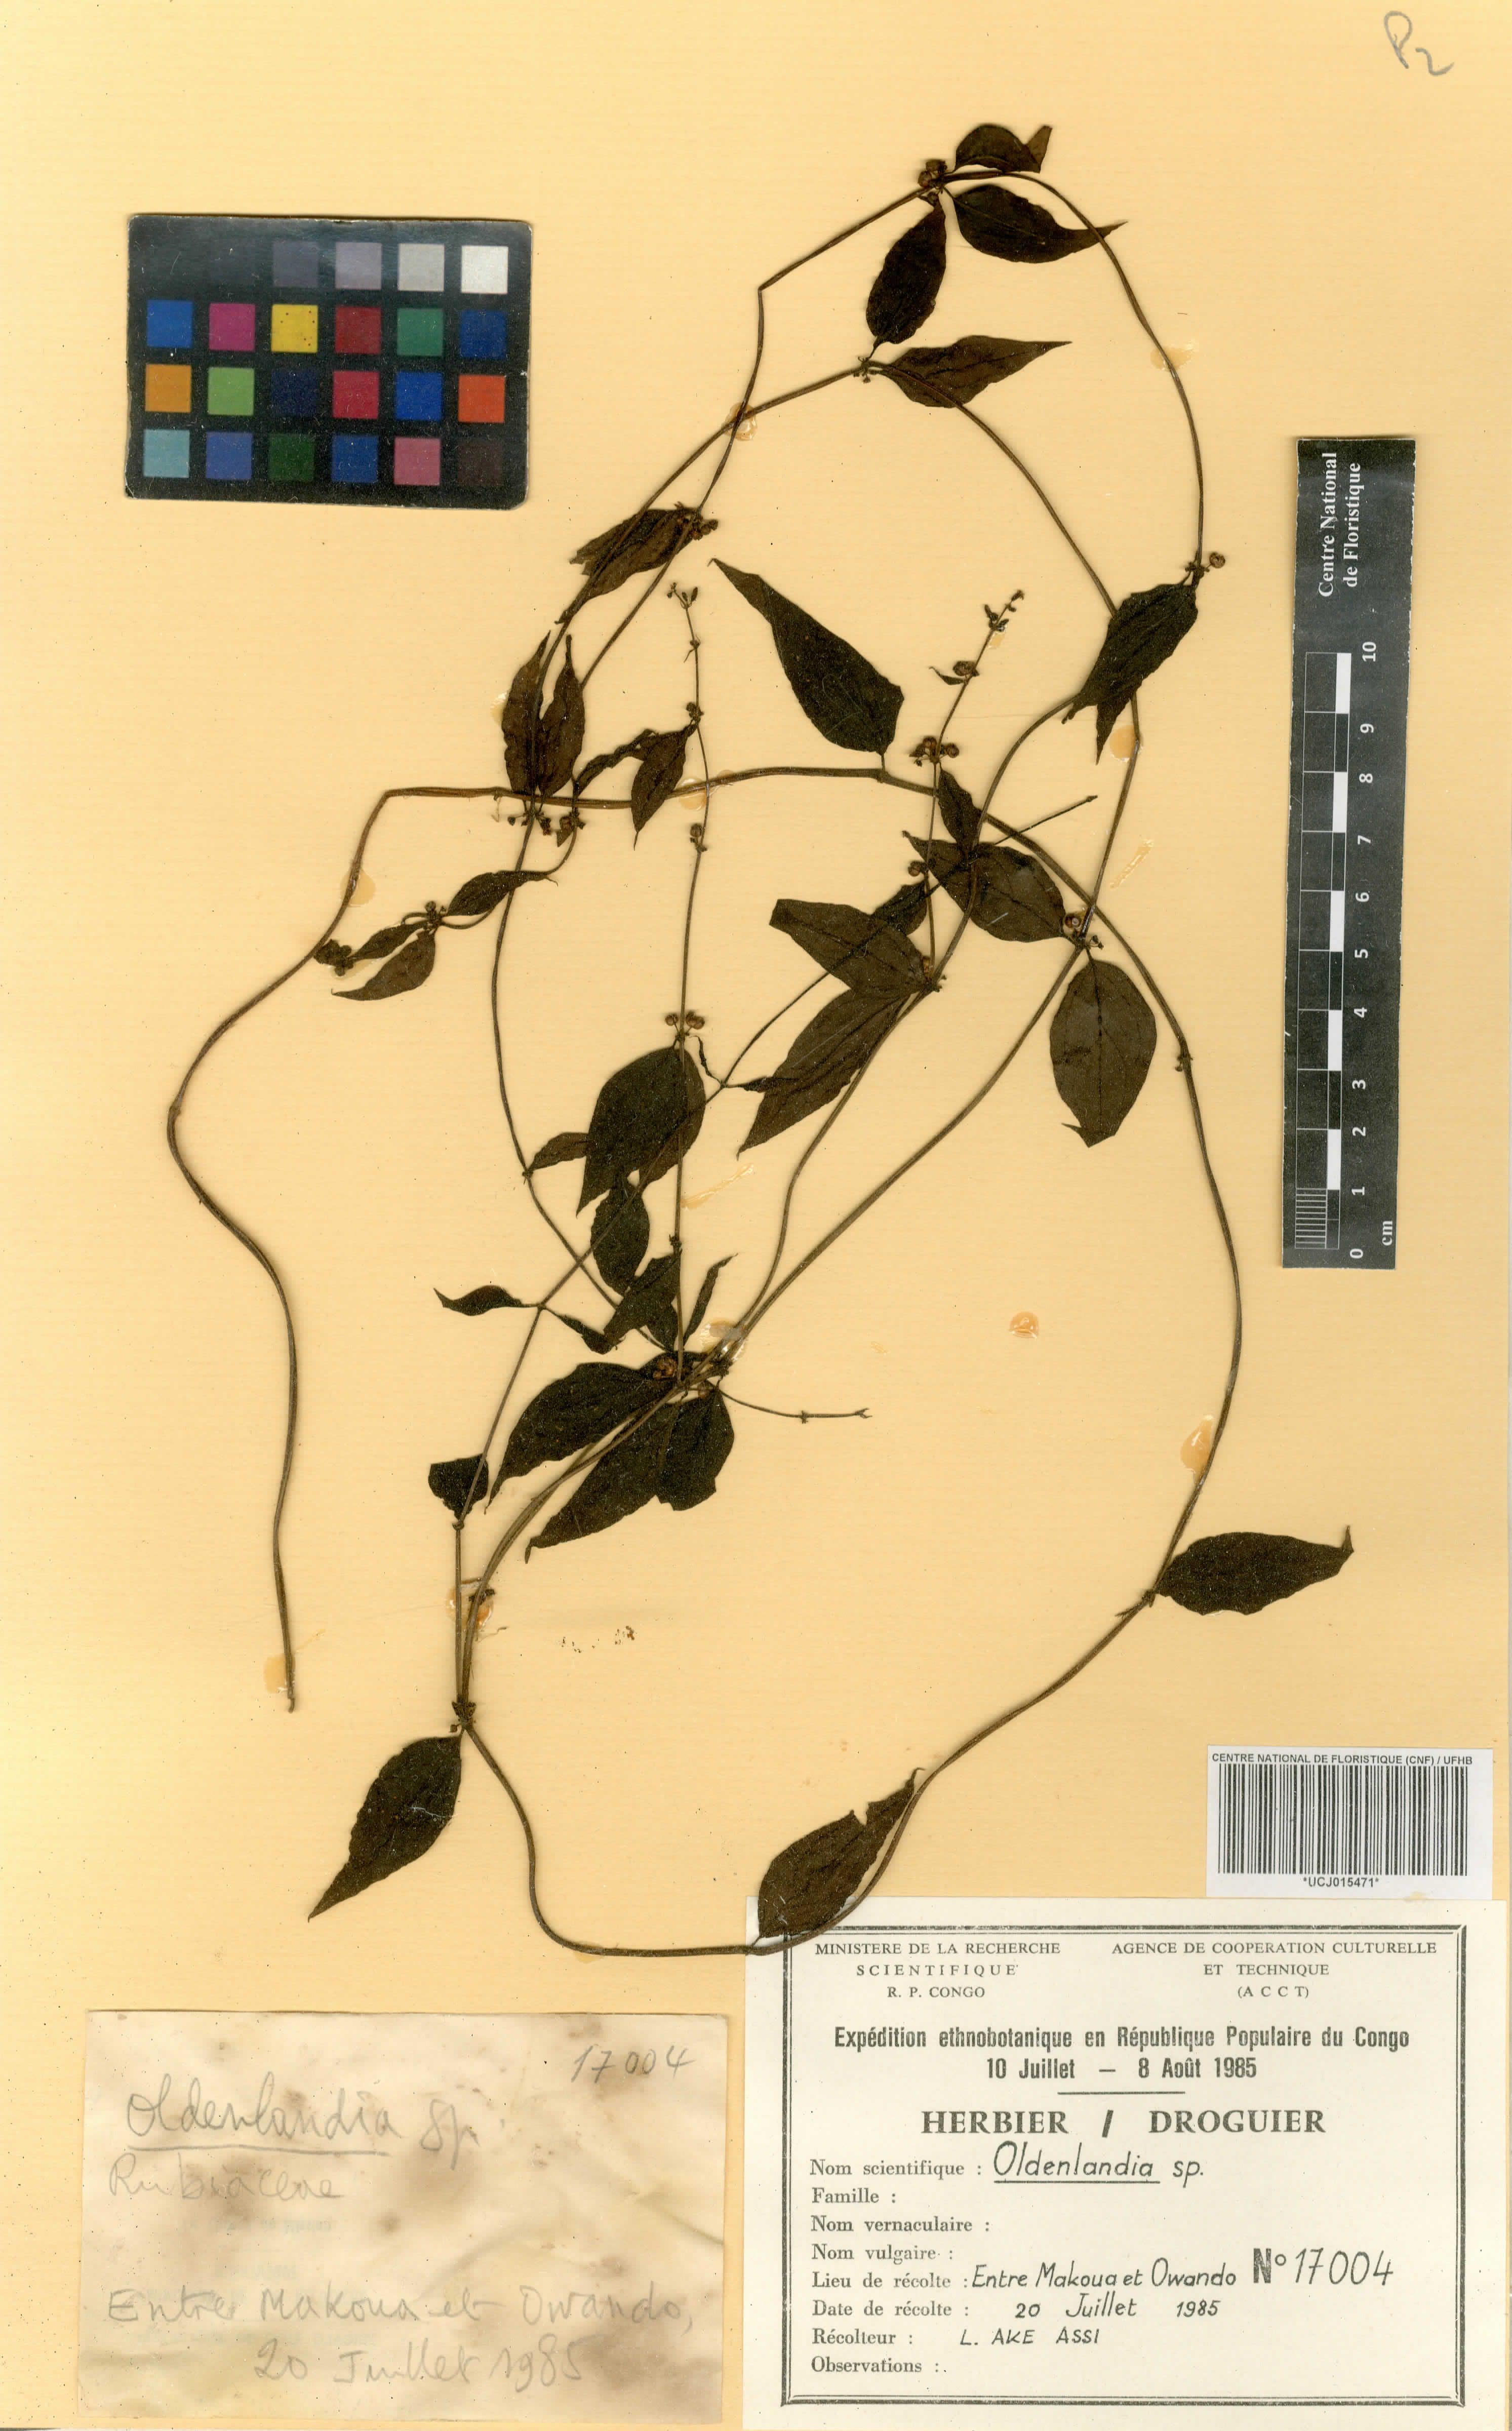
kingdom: Plantae
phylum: Tracheophyta
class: Magnoliopsida
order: Gentianales
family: Rubiaceae
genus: Oldenlandia
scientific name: Oldenlandia
